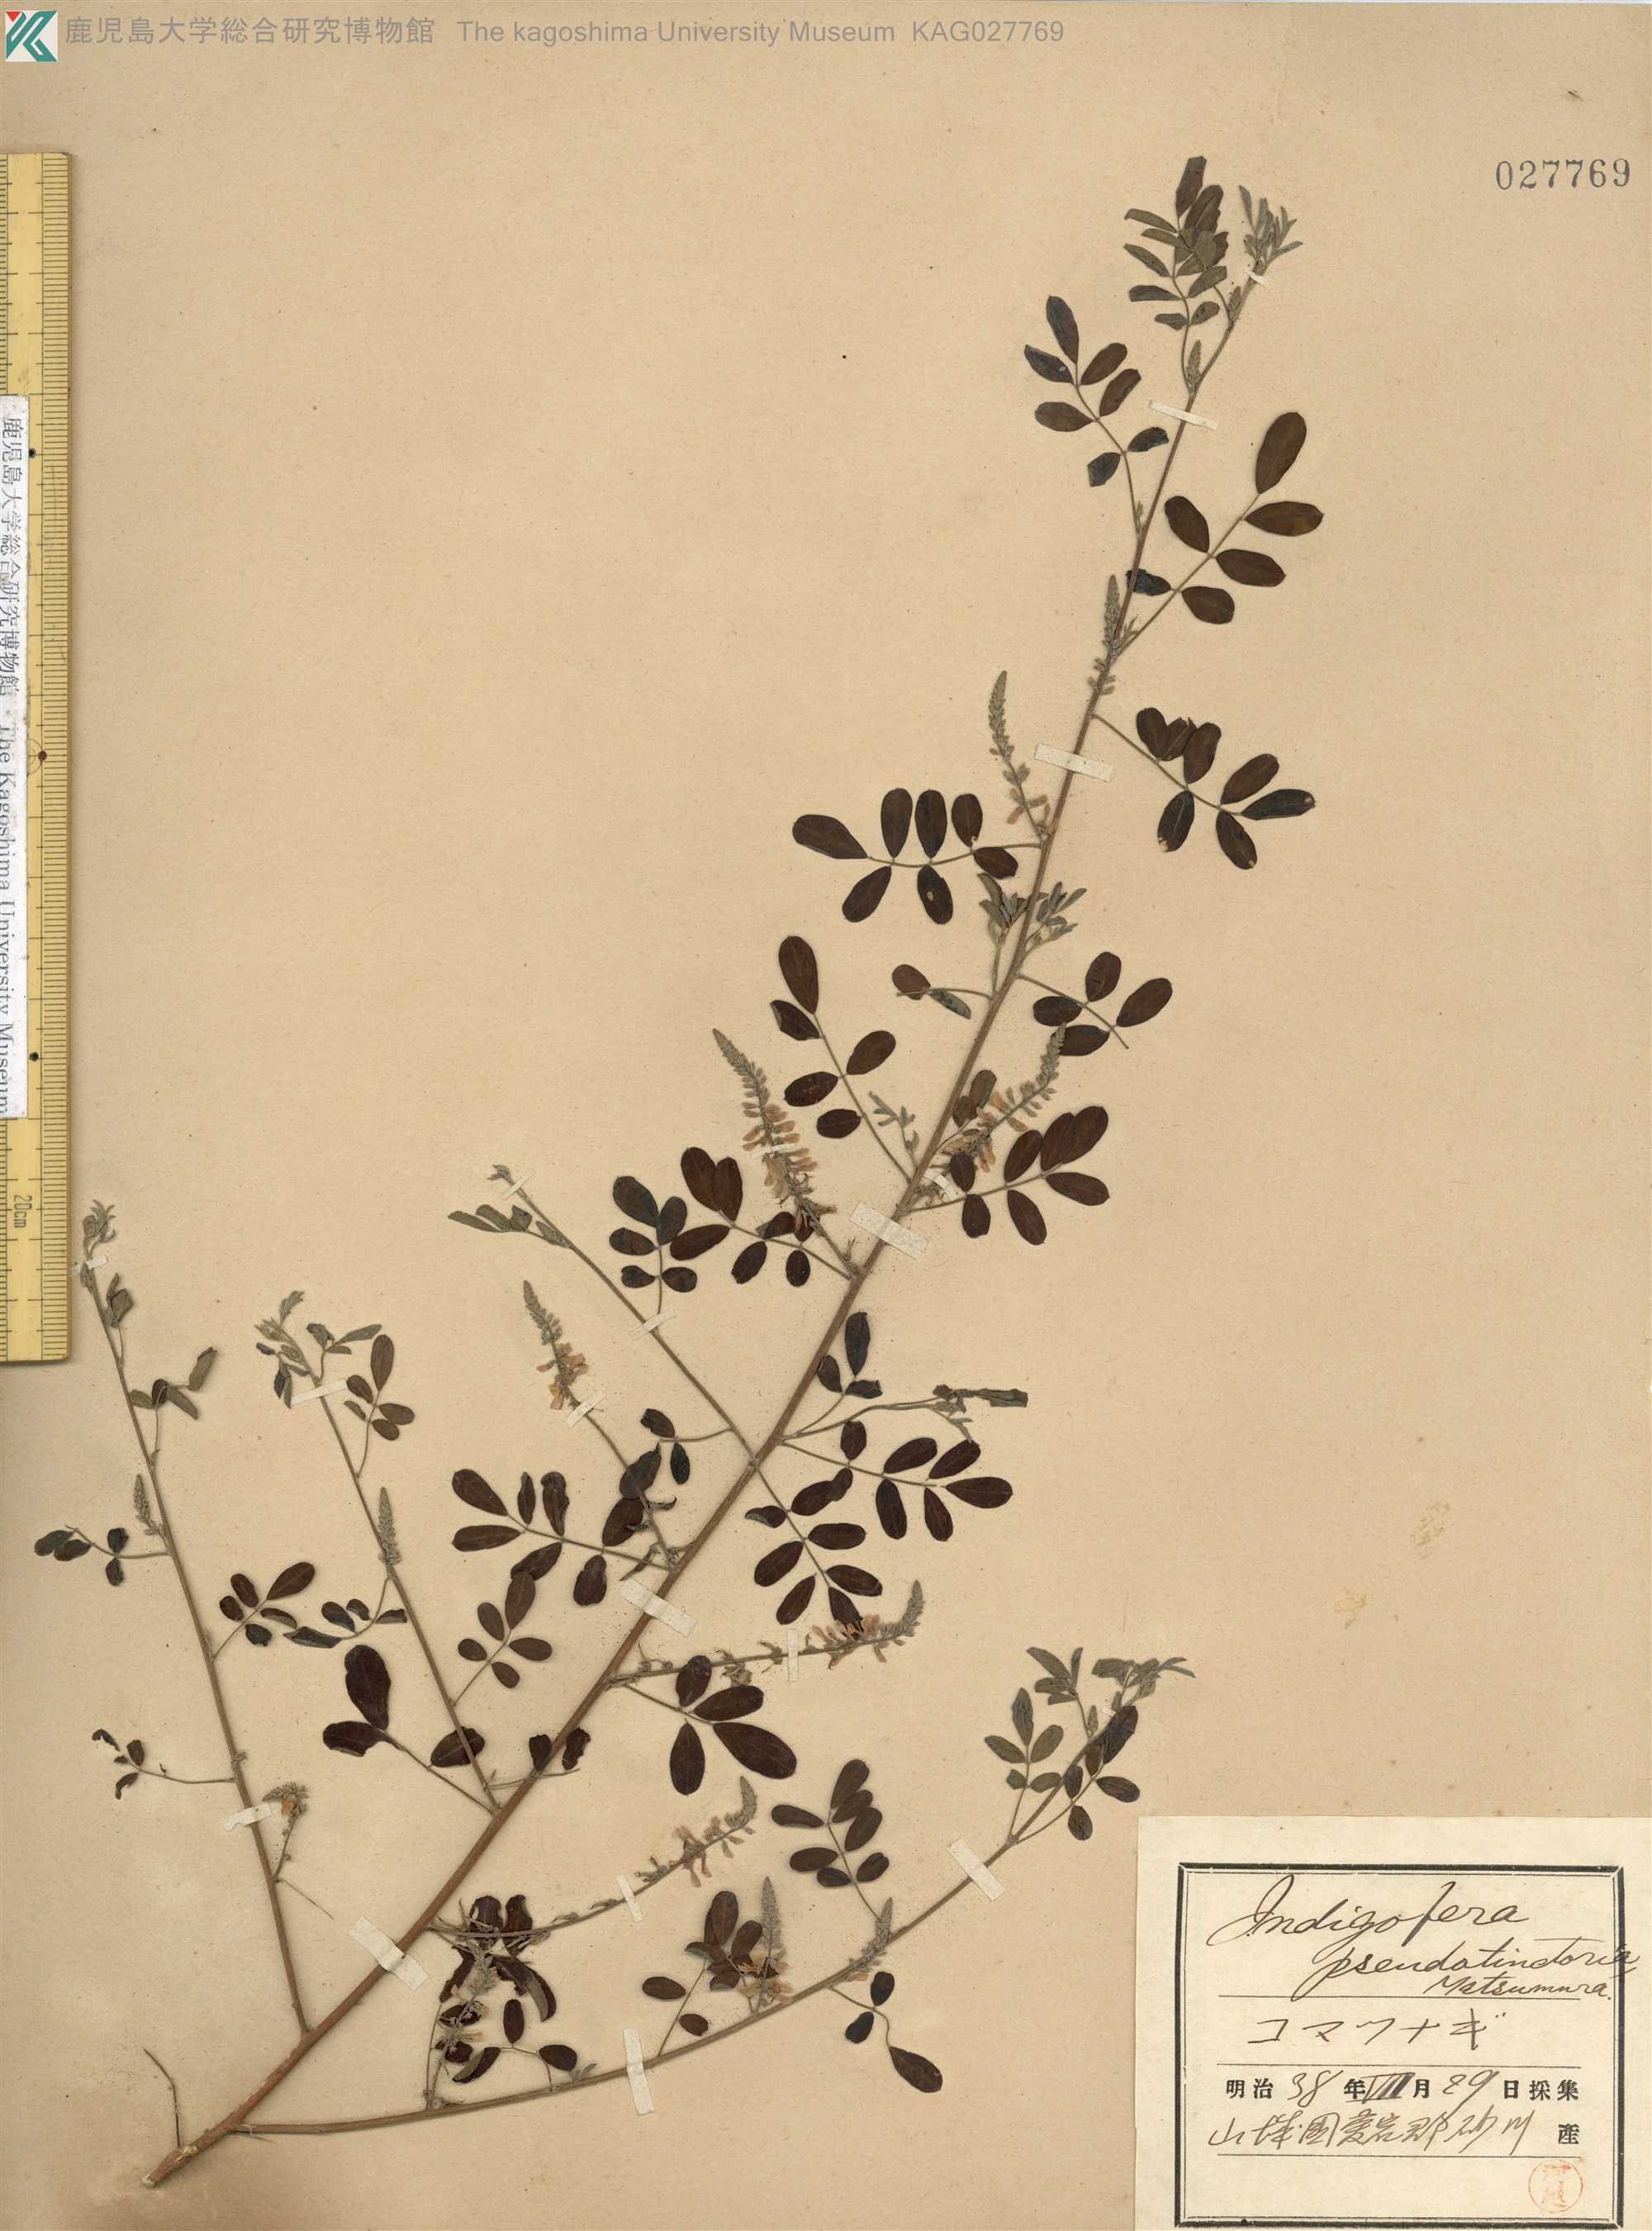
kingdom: Plantae
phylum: Tracheophyta
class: Magnoliopsida
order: Fabales
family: Fabaceae
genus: Indigofera
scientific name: Indigofera bungeana
